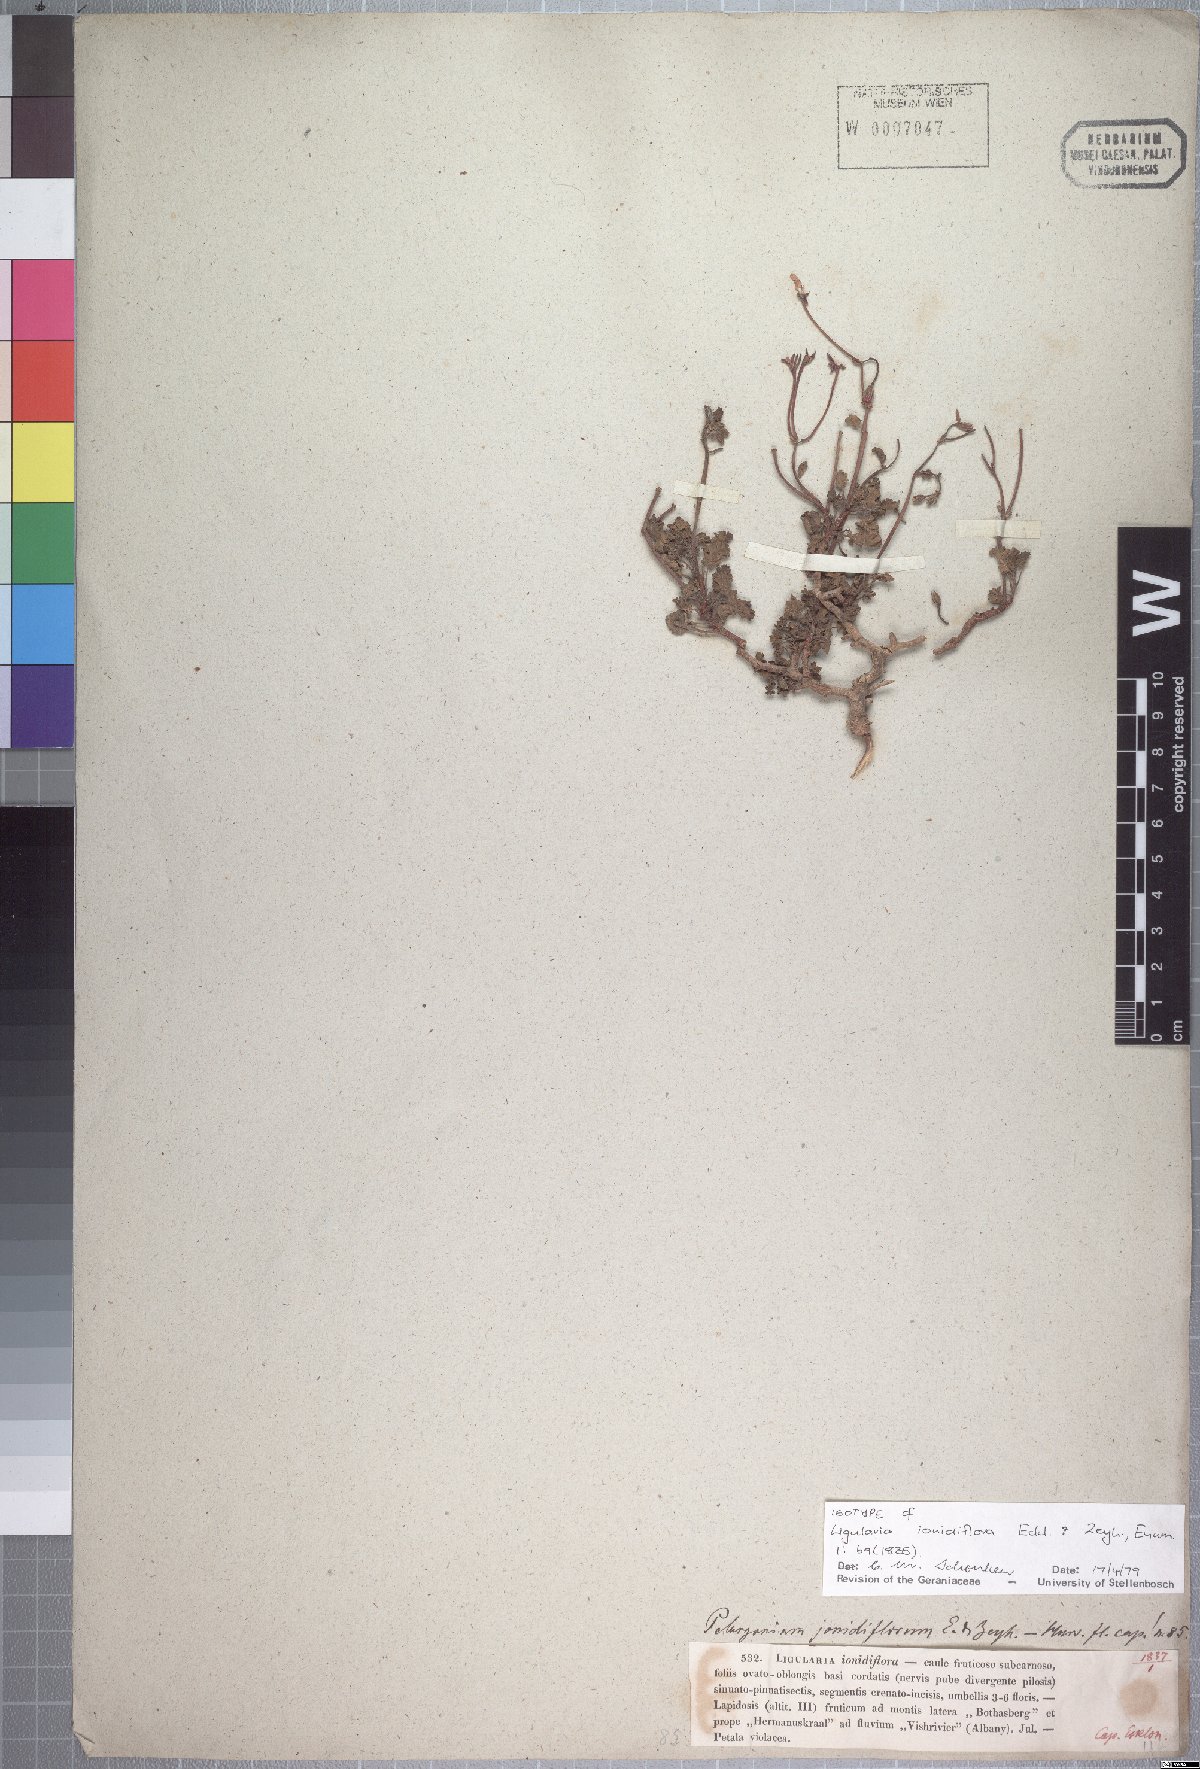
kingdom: Plantae
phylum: Tracheophyta
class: Magnoliopsida
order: Geraniales
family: Geraniaceae
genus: Pelargonium
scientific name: Pelargonium ionidiflorum
